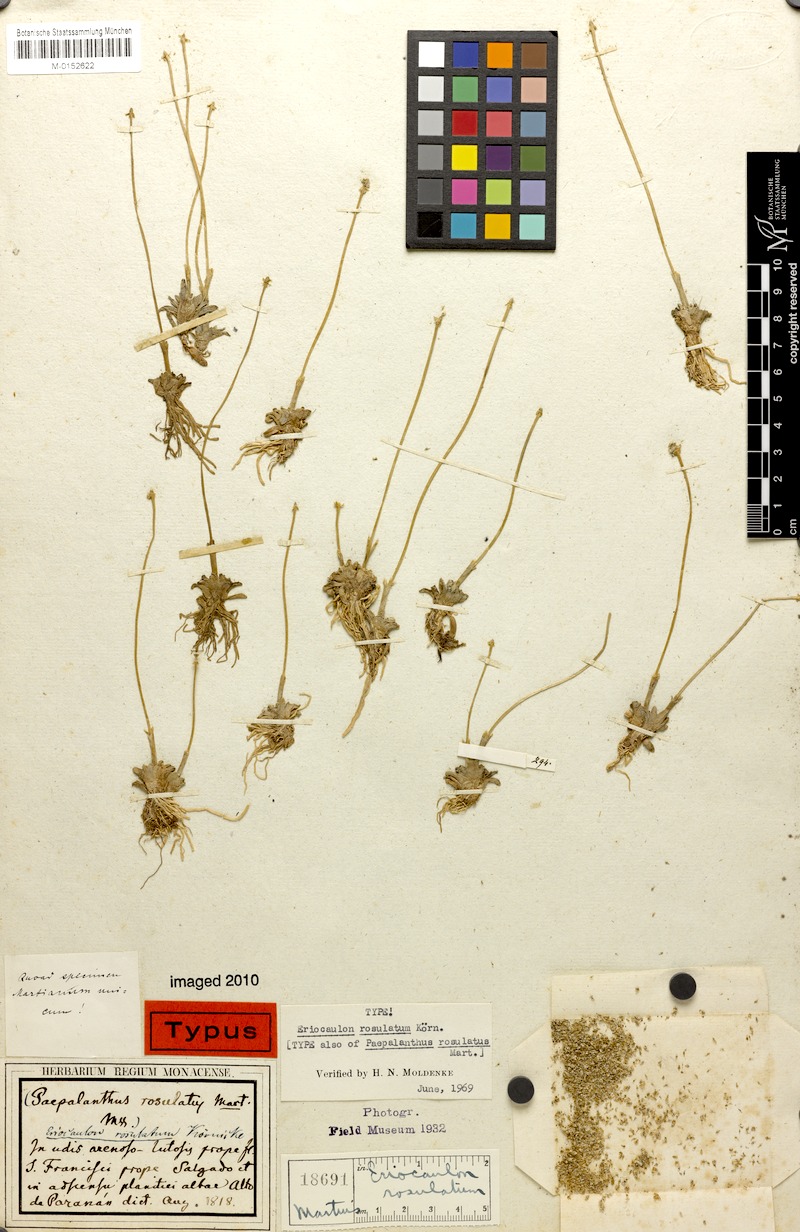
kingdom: Plantae
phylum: Tracheophyta
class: Liliopsida
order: Poales
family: Eriocaulaceae
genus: Eriocaulon
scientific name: Eriocaulon rosulatum
